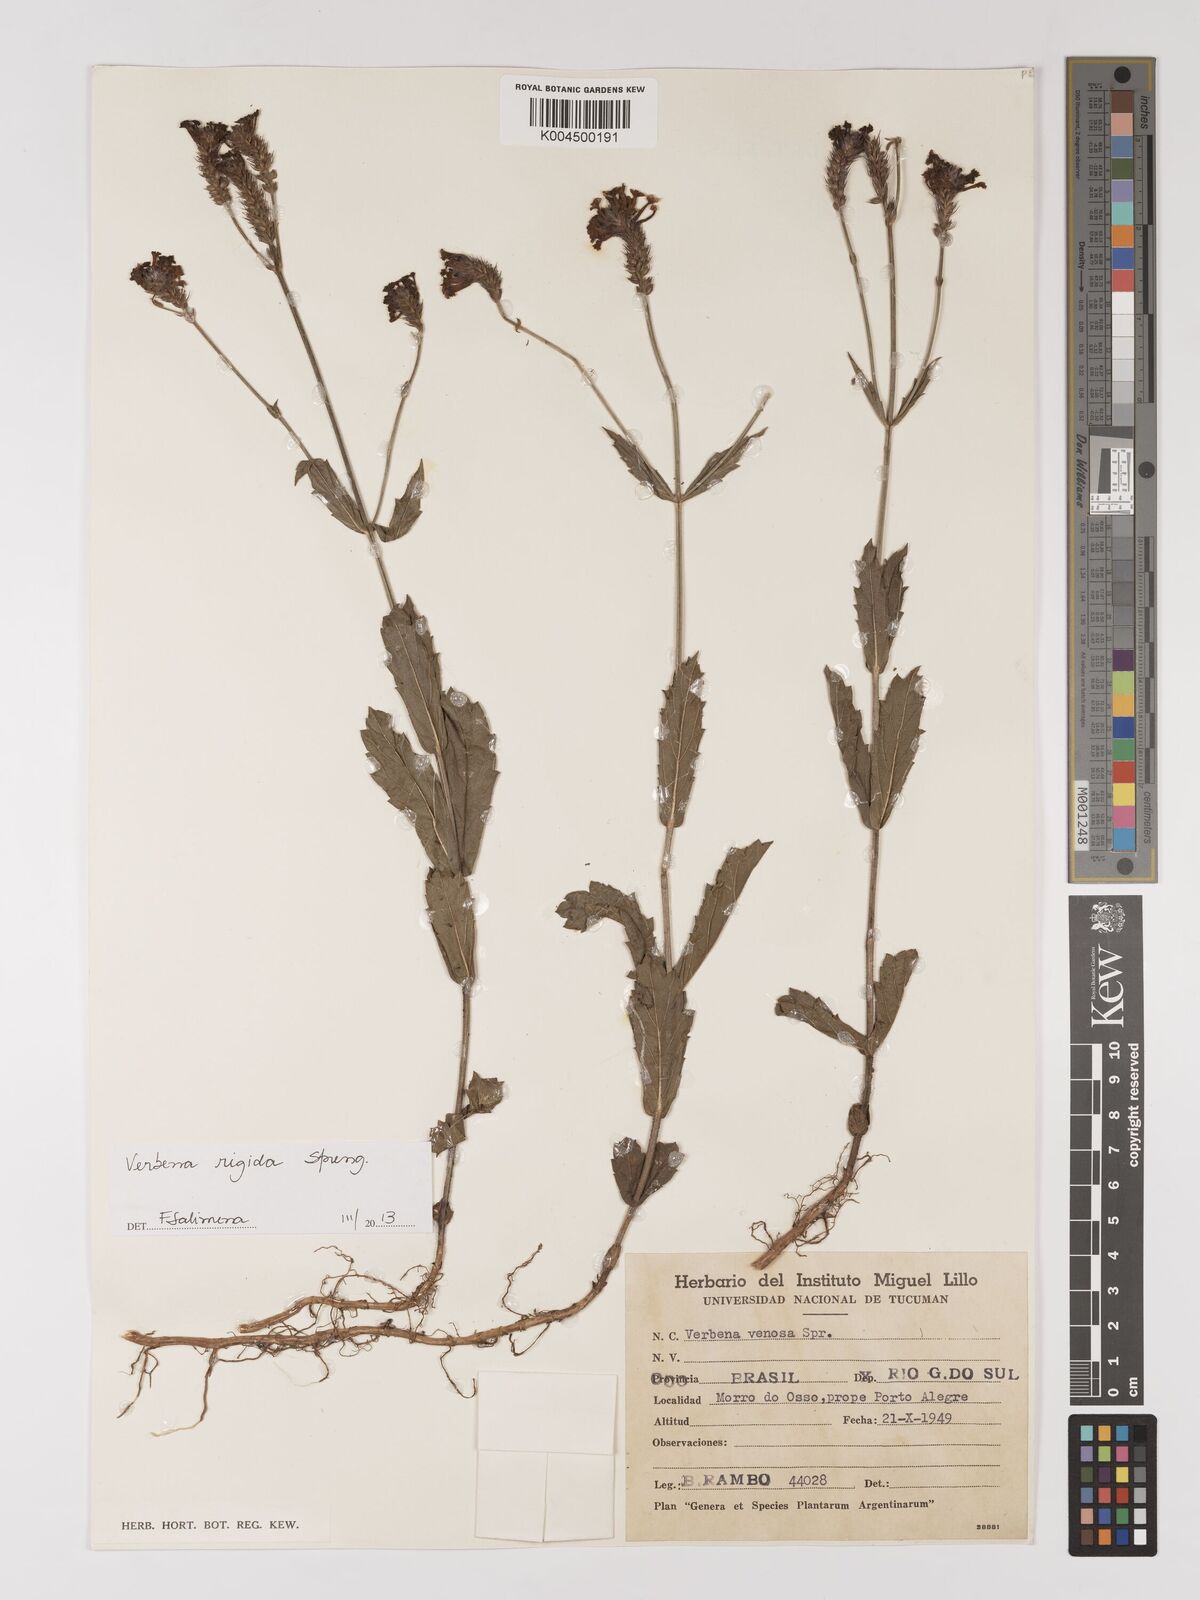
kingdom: Plantae
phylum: Tracheophyta
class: Magnoliopsida
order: Lamiales
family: Verbenaceae
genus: Verbena
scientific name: Verbena rigida
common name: Slender vervain
